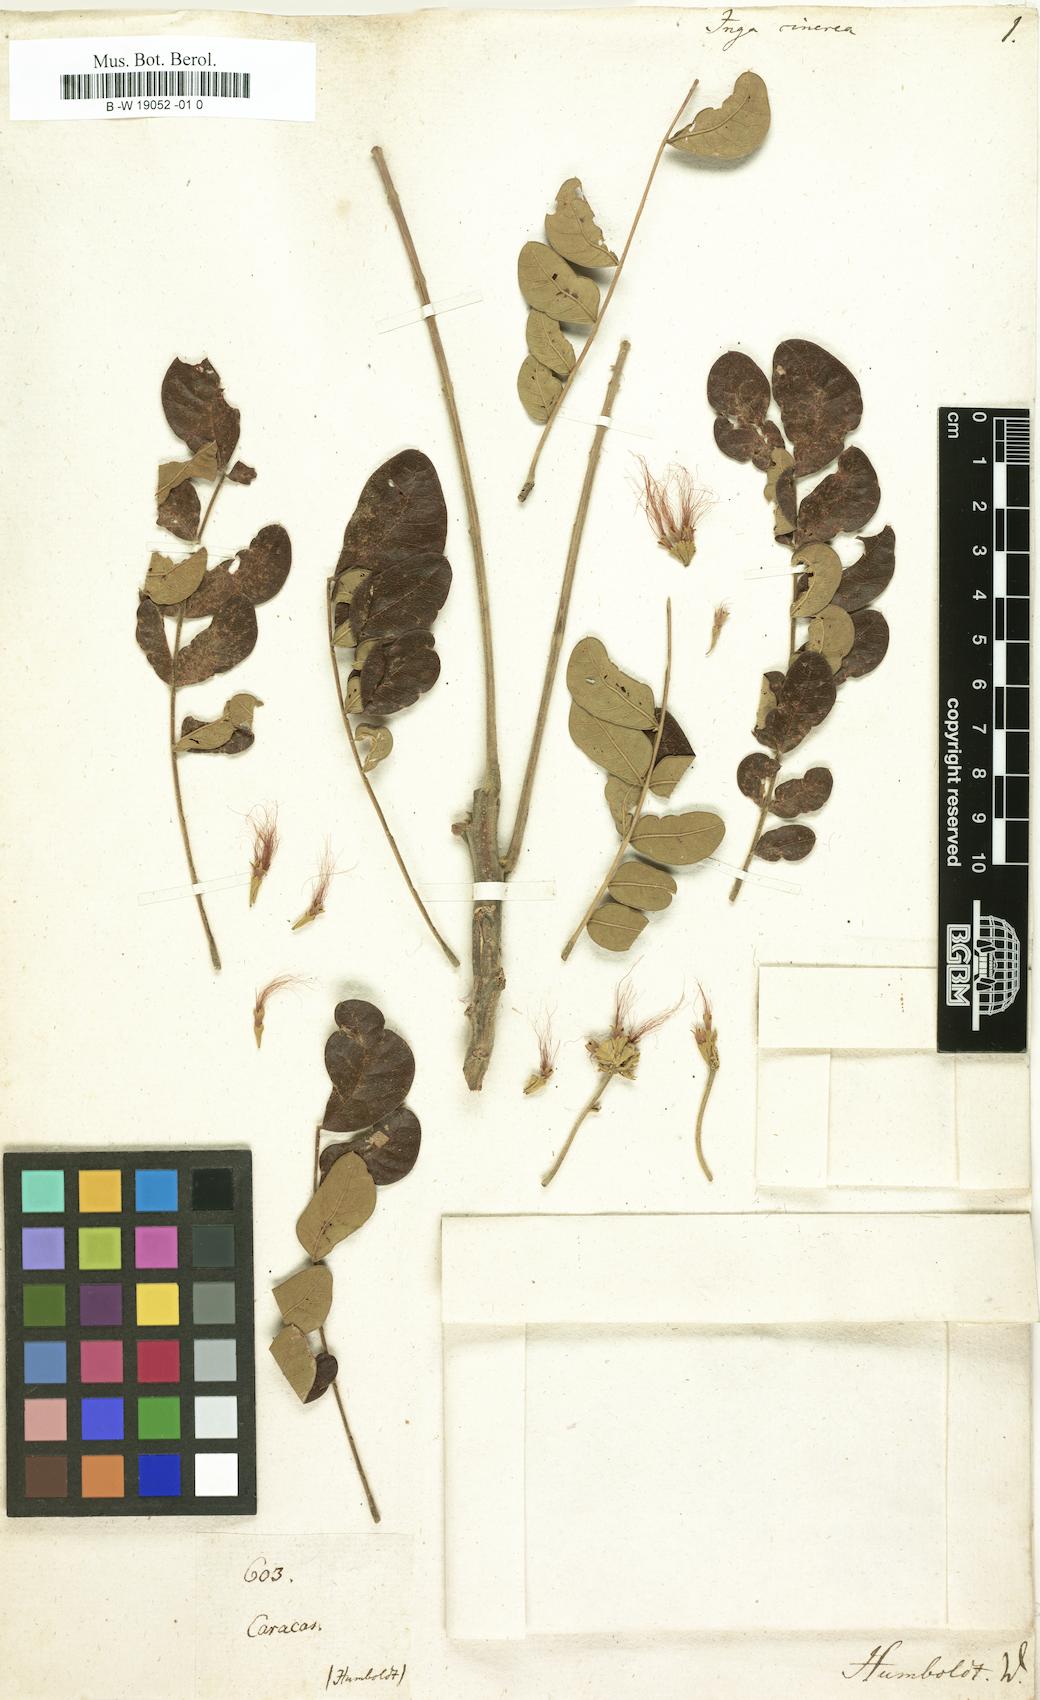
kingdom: Plantae
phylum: Tracheophyta
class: Magnoliopsida
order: Fabales
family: Fabaceae
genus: Samanea
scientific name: Samanea saman
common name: Raintree
